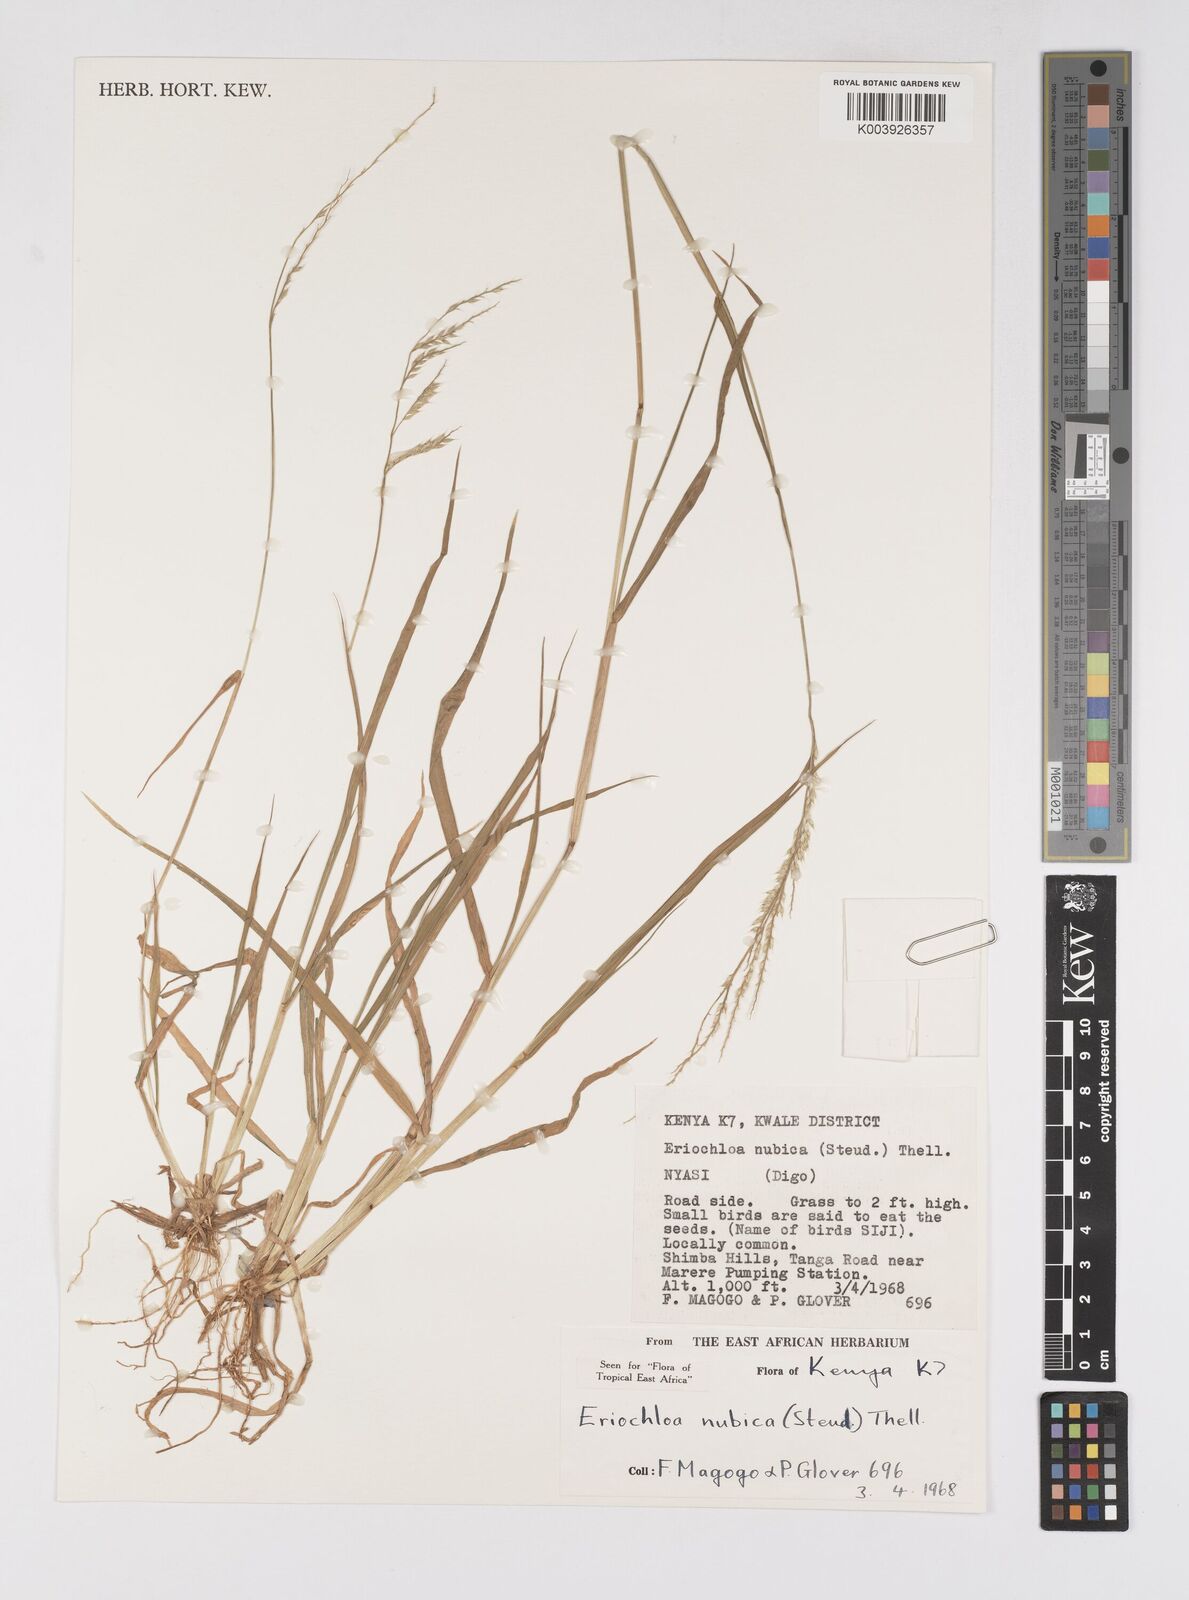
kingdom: Plantae
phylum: Tracheophyta
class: Liliopsida
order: Poales
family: Poaceae
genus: Eriochloa
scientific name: Eriochloa barbatus
